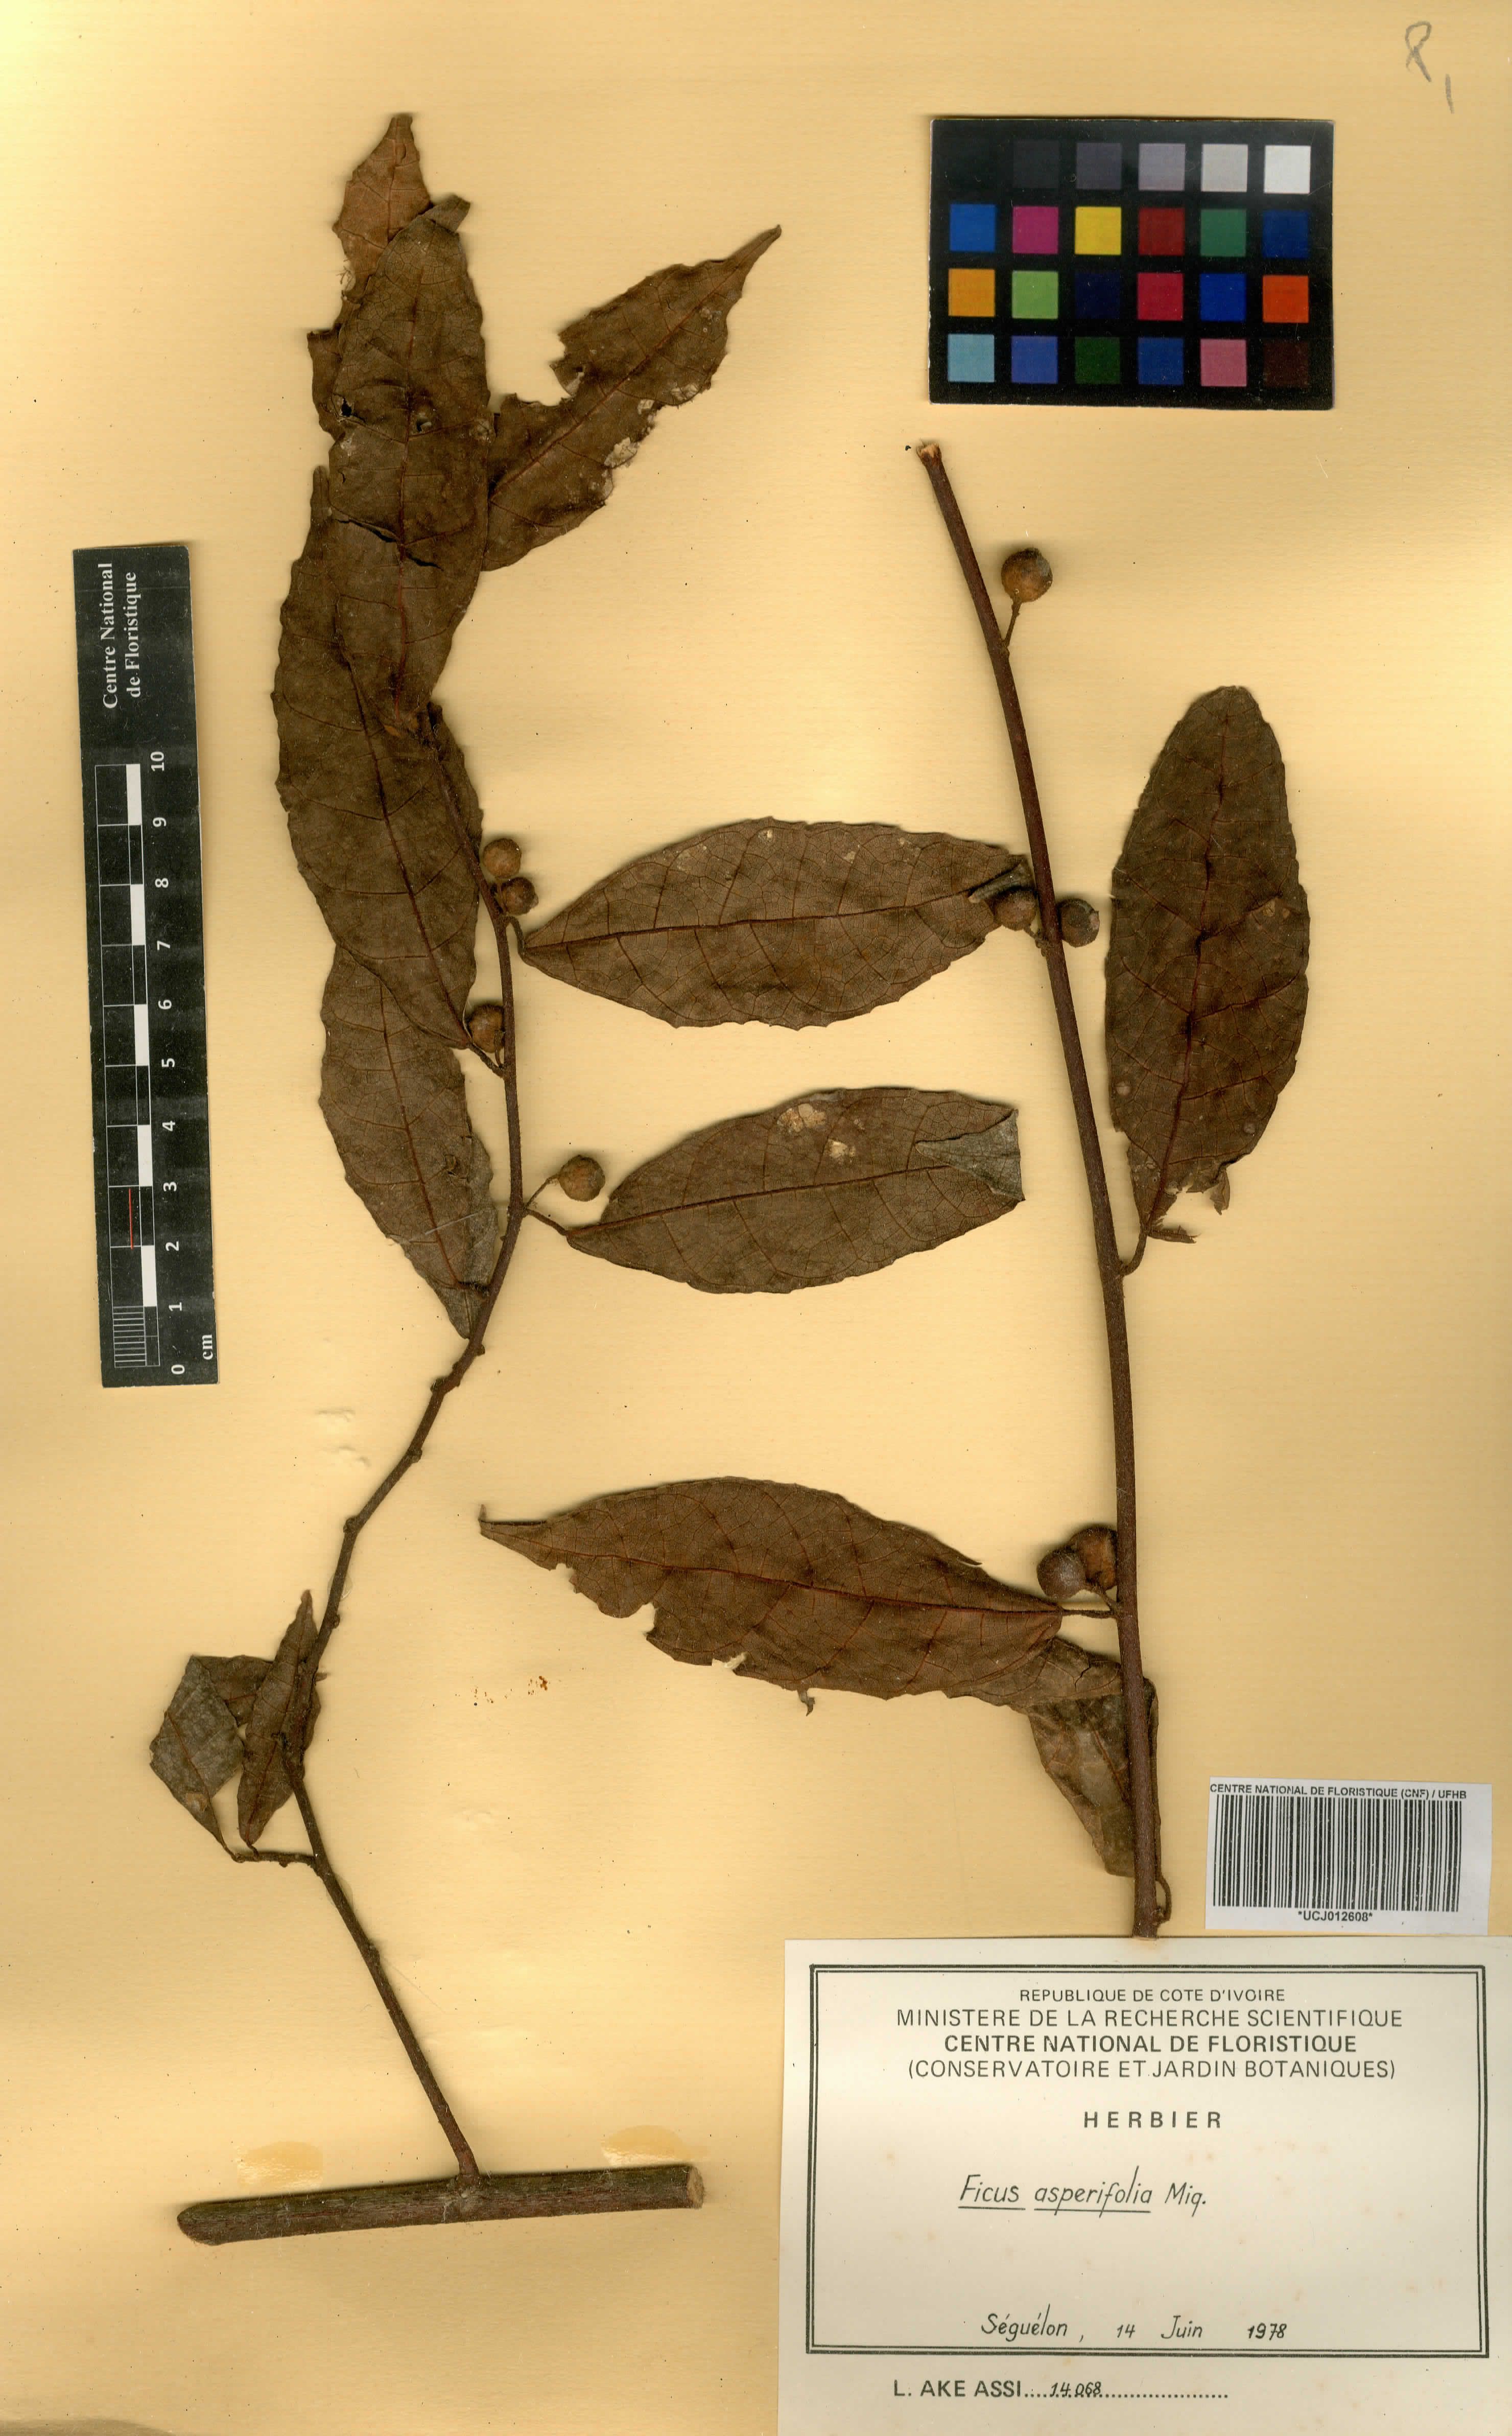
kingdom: Plantae
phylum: Tracheophyta
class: Magnoliopsida
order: Rosales
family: Moraceae
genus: Ficus
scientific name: Ficus asperifolia
